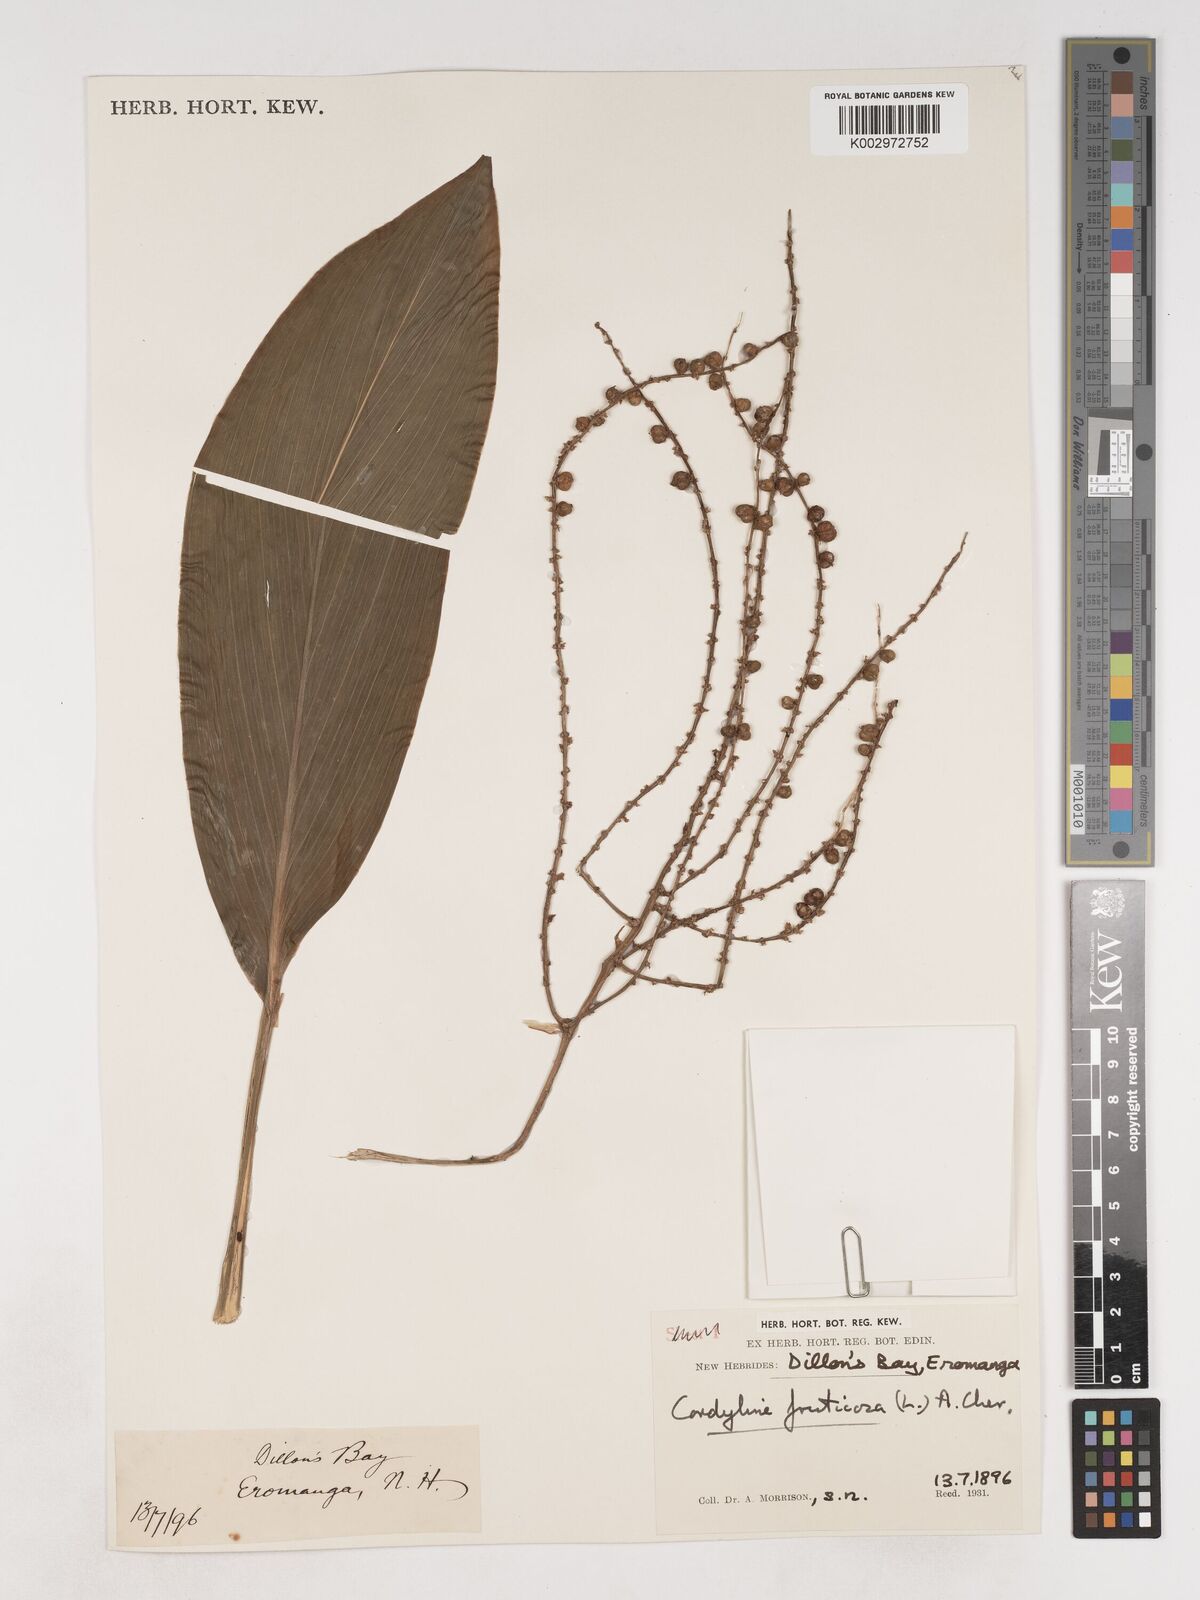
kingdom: Plantae
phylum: Tracheophyta
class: Liliopsida
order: Asparagales
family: Asparagaceae
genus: Cordyline
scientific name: Cordyline fruticosa
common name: Good-luck-plant
